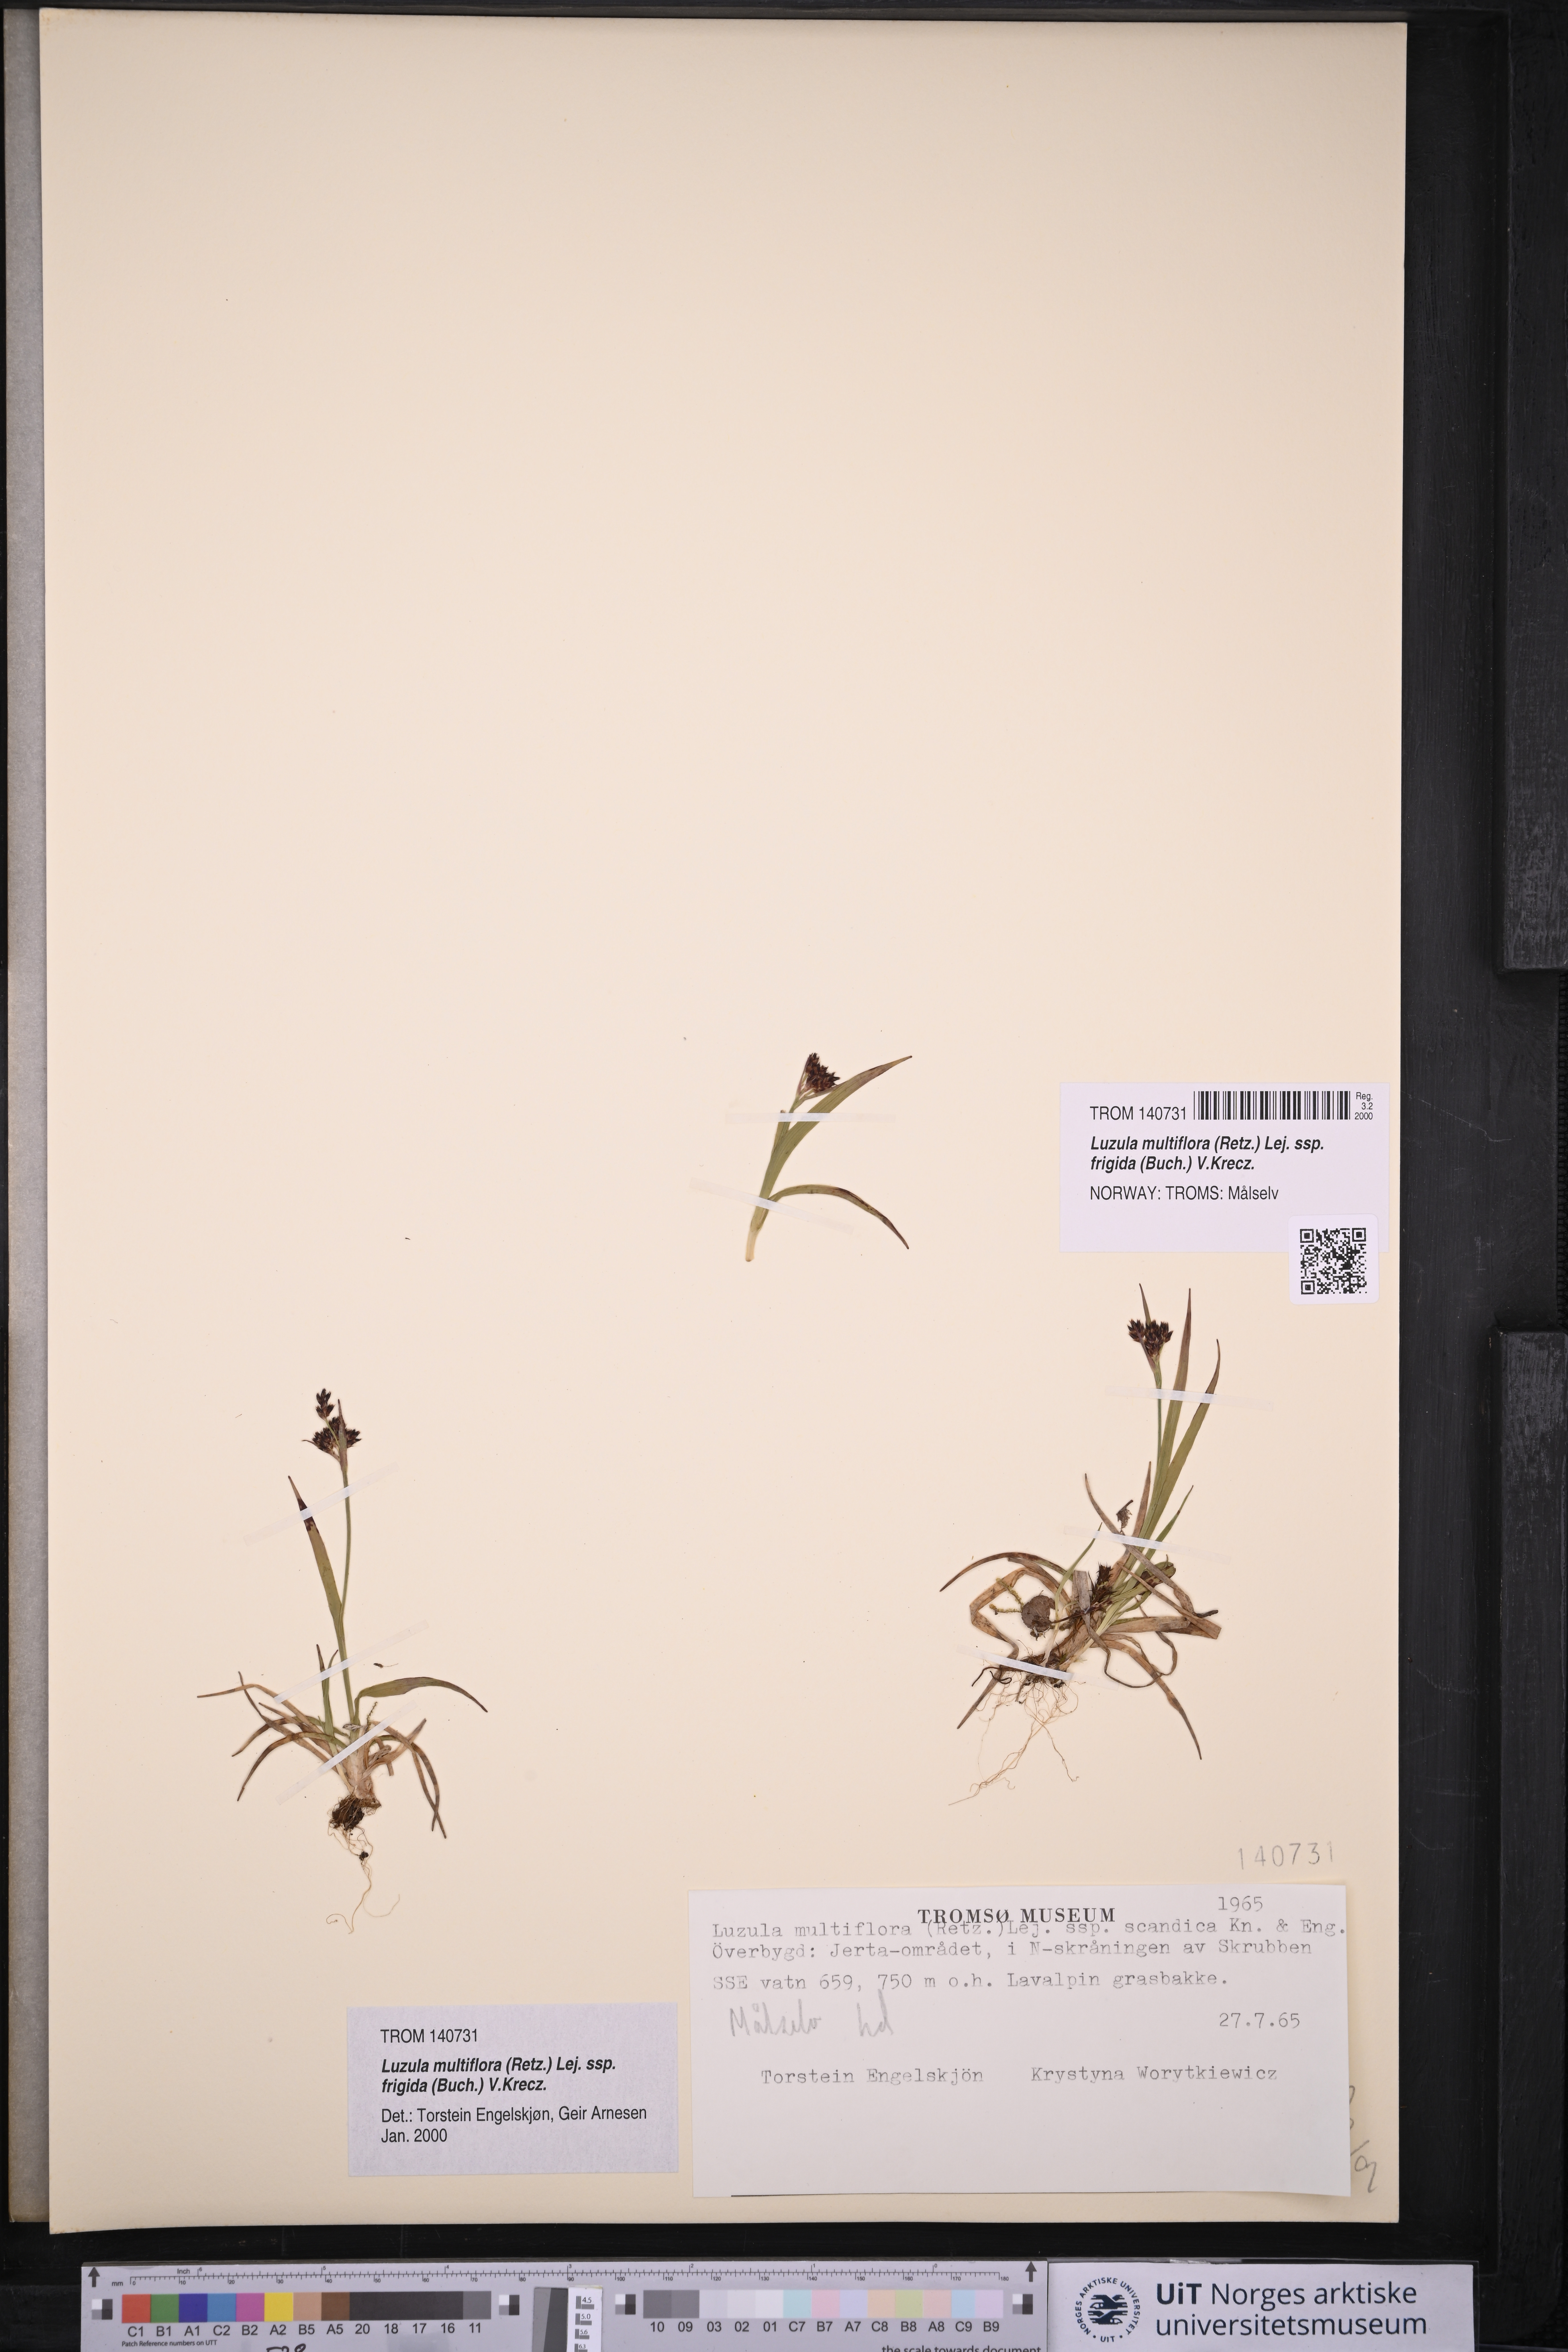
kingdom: Plantae
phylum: Tracheophyta
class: Liliopsida
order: Poales
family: Juncaceae
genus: Luzula
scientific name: Luzula multiflora
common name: Heath wood-rush
